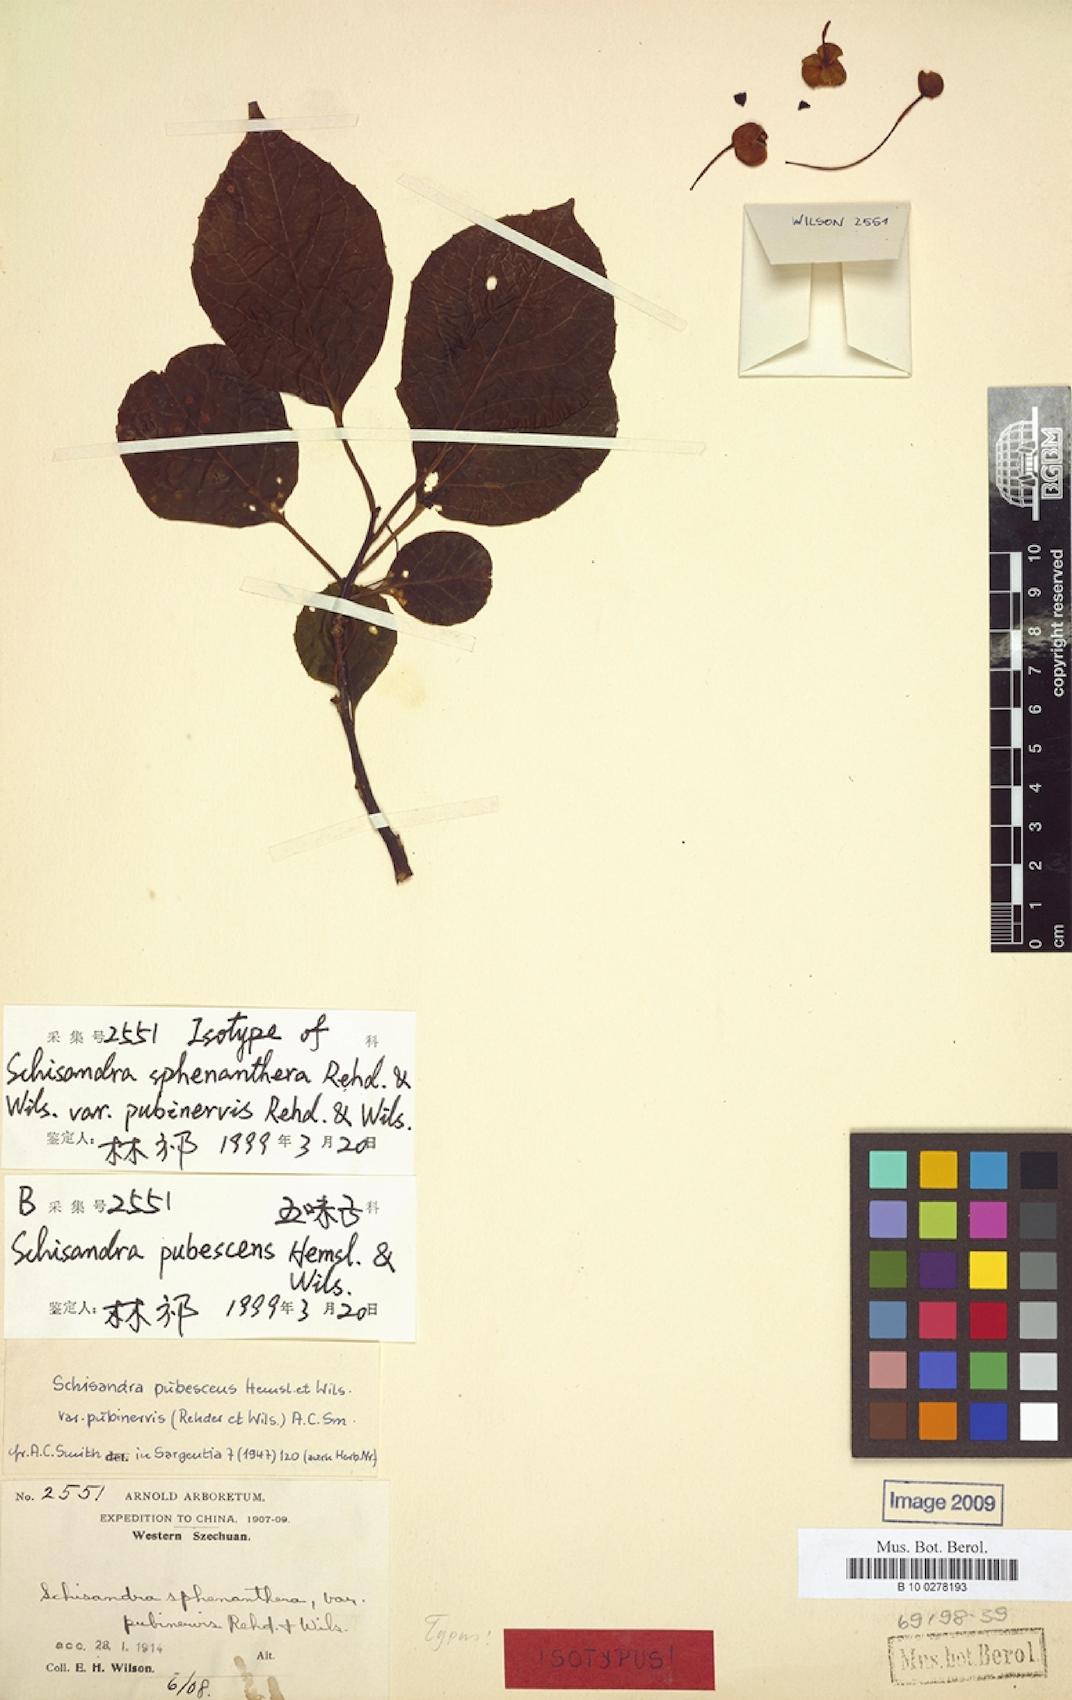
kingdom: Plantae
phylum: Tracheophyta
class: Magnoliopsida
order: Austrobaileyales
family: Schisandraceae
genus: Schisandra
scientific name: Schisandra pubescens
